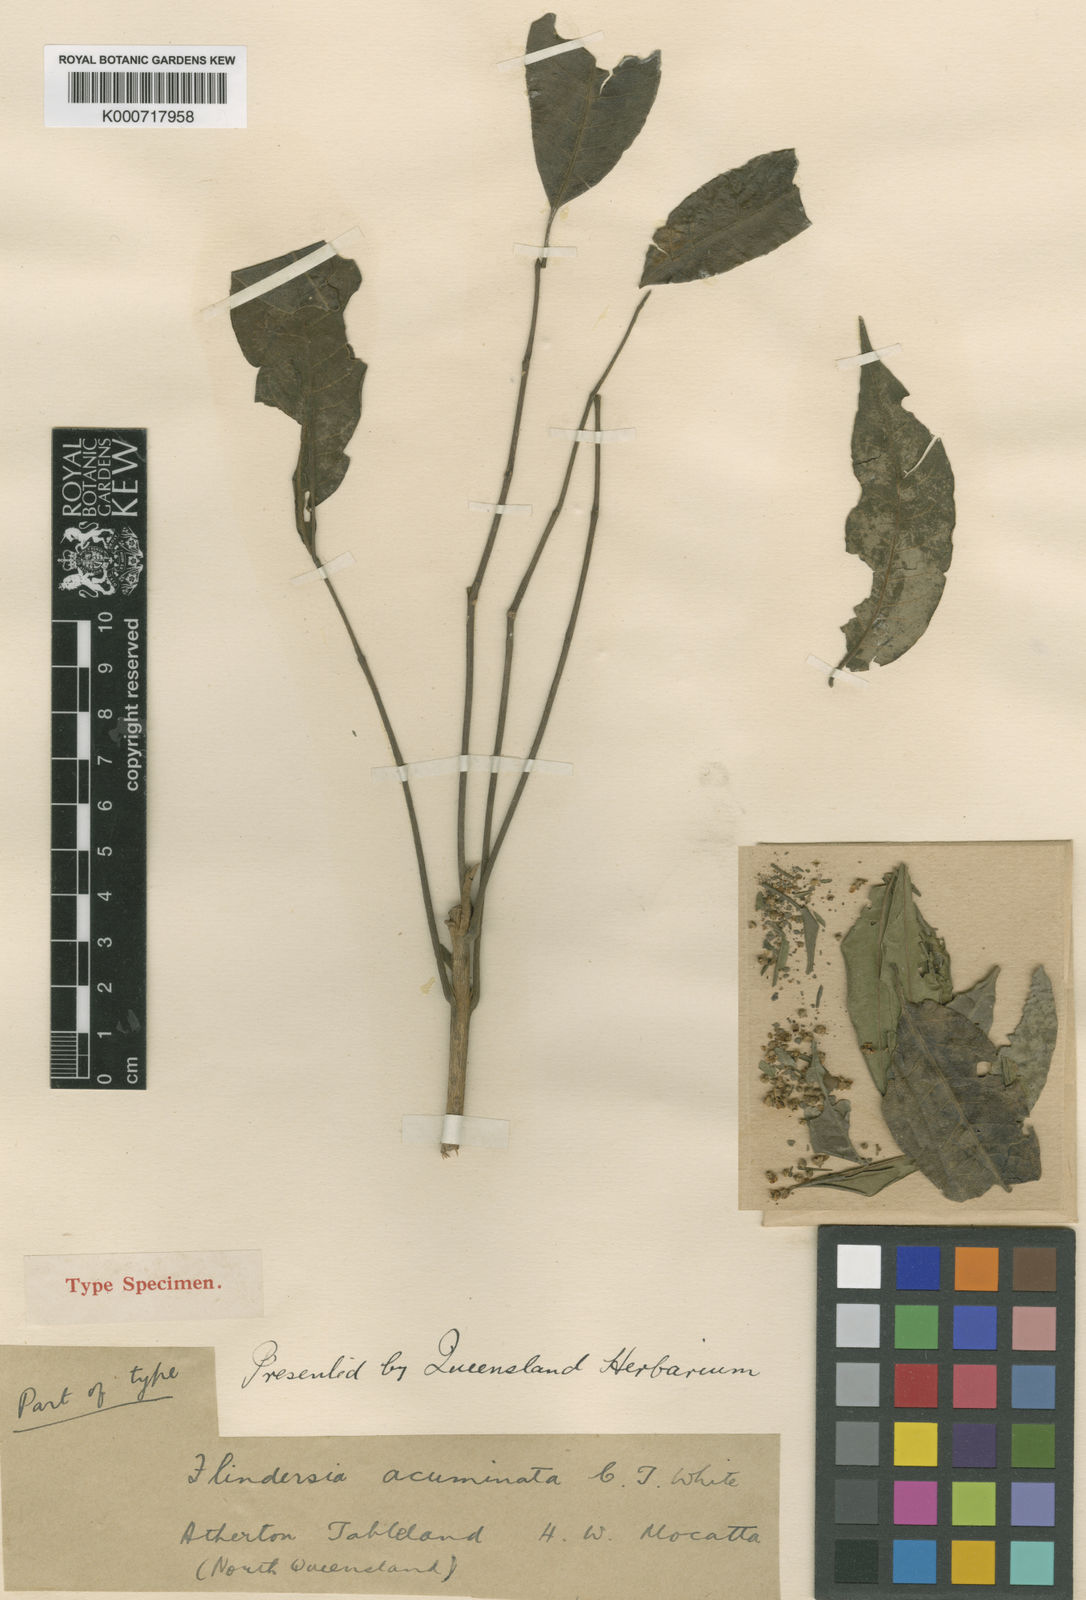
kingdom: Plantae
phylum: Tracheophyta
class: Magnoliopsida
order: Sapindales
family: Rutaceae
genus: Flindersia
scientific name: Flindersia acuminata
